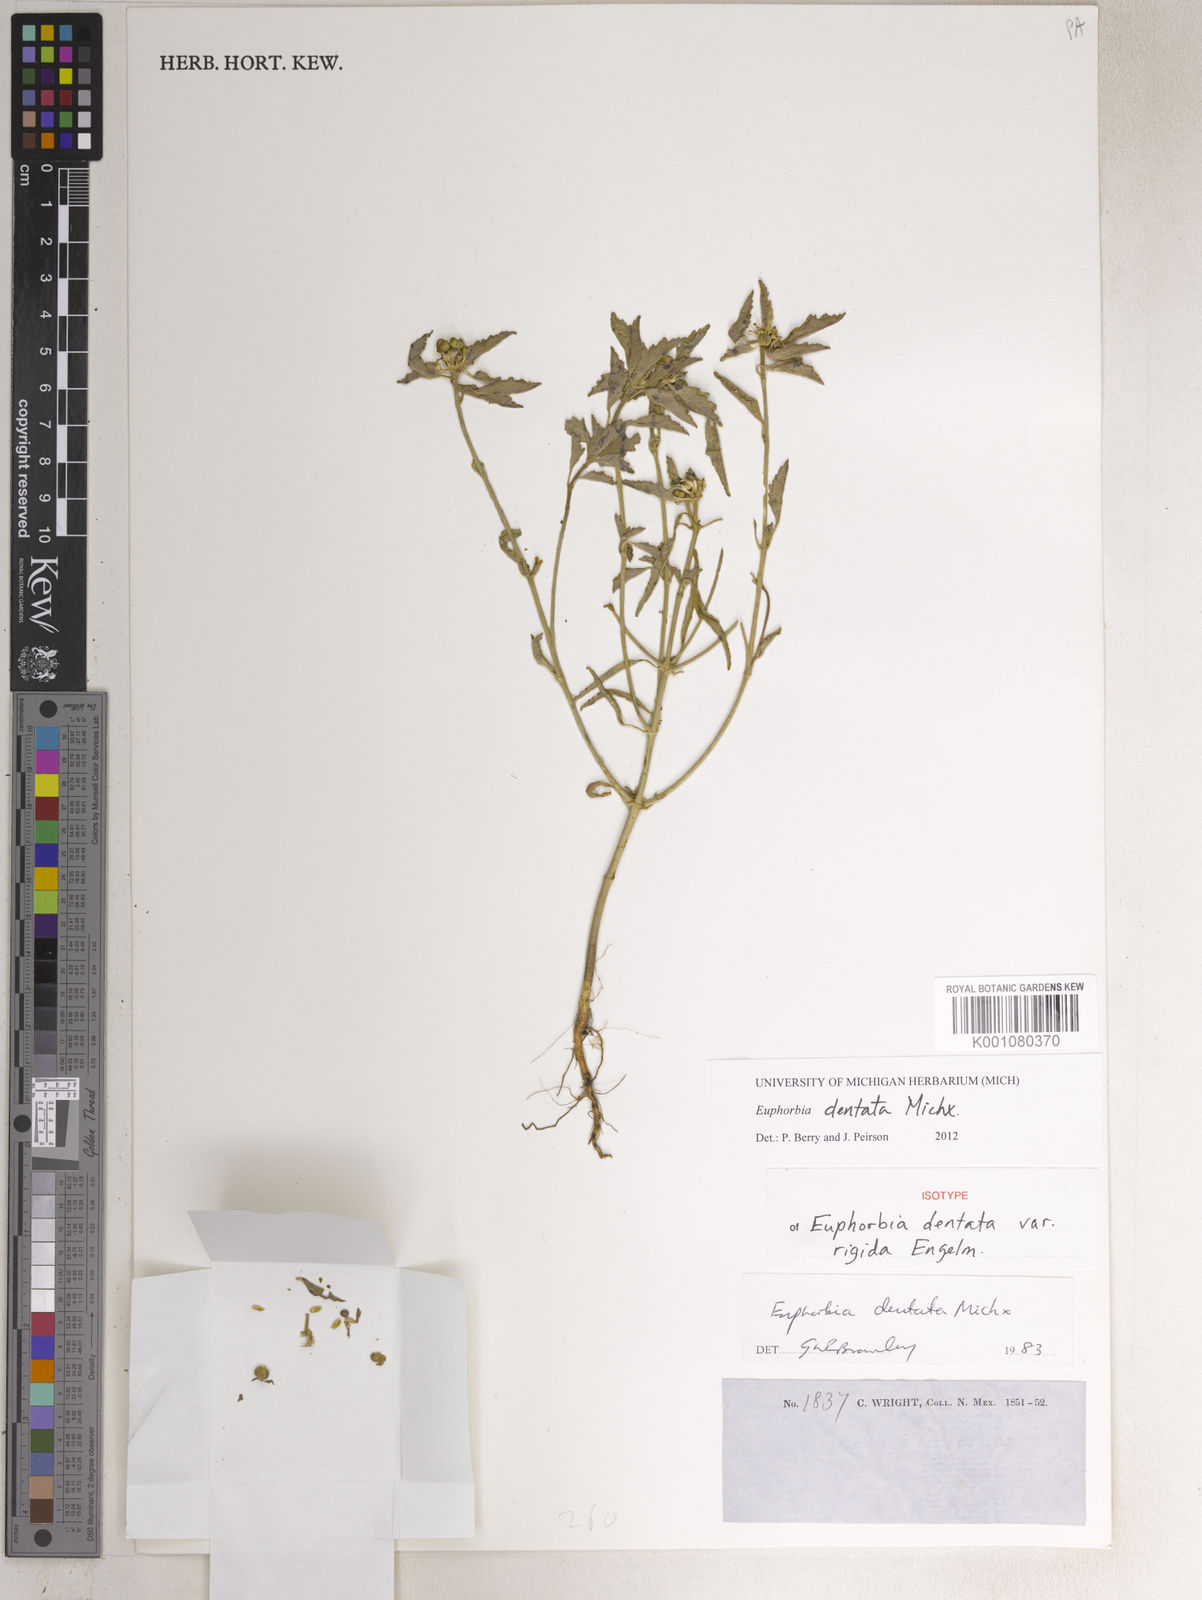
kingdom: Plantae
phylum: Tracheophyta
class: Magnoliopsida
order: Malpighiales
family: Euphorbiaceae
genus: Euphorbia
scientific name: Euphorbia dentata
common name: Dentate spurge
